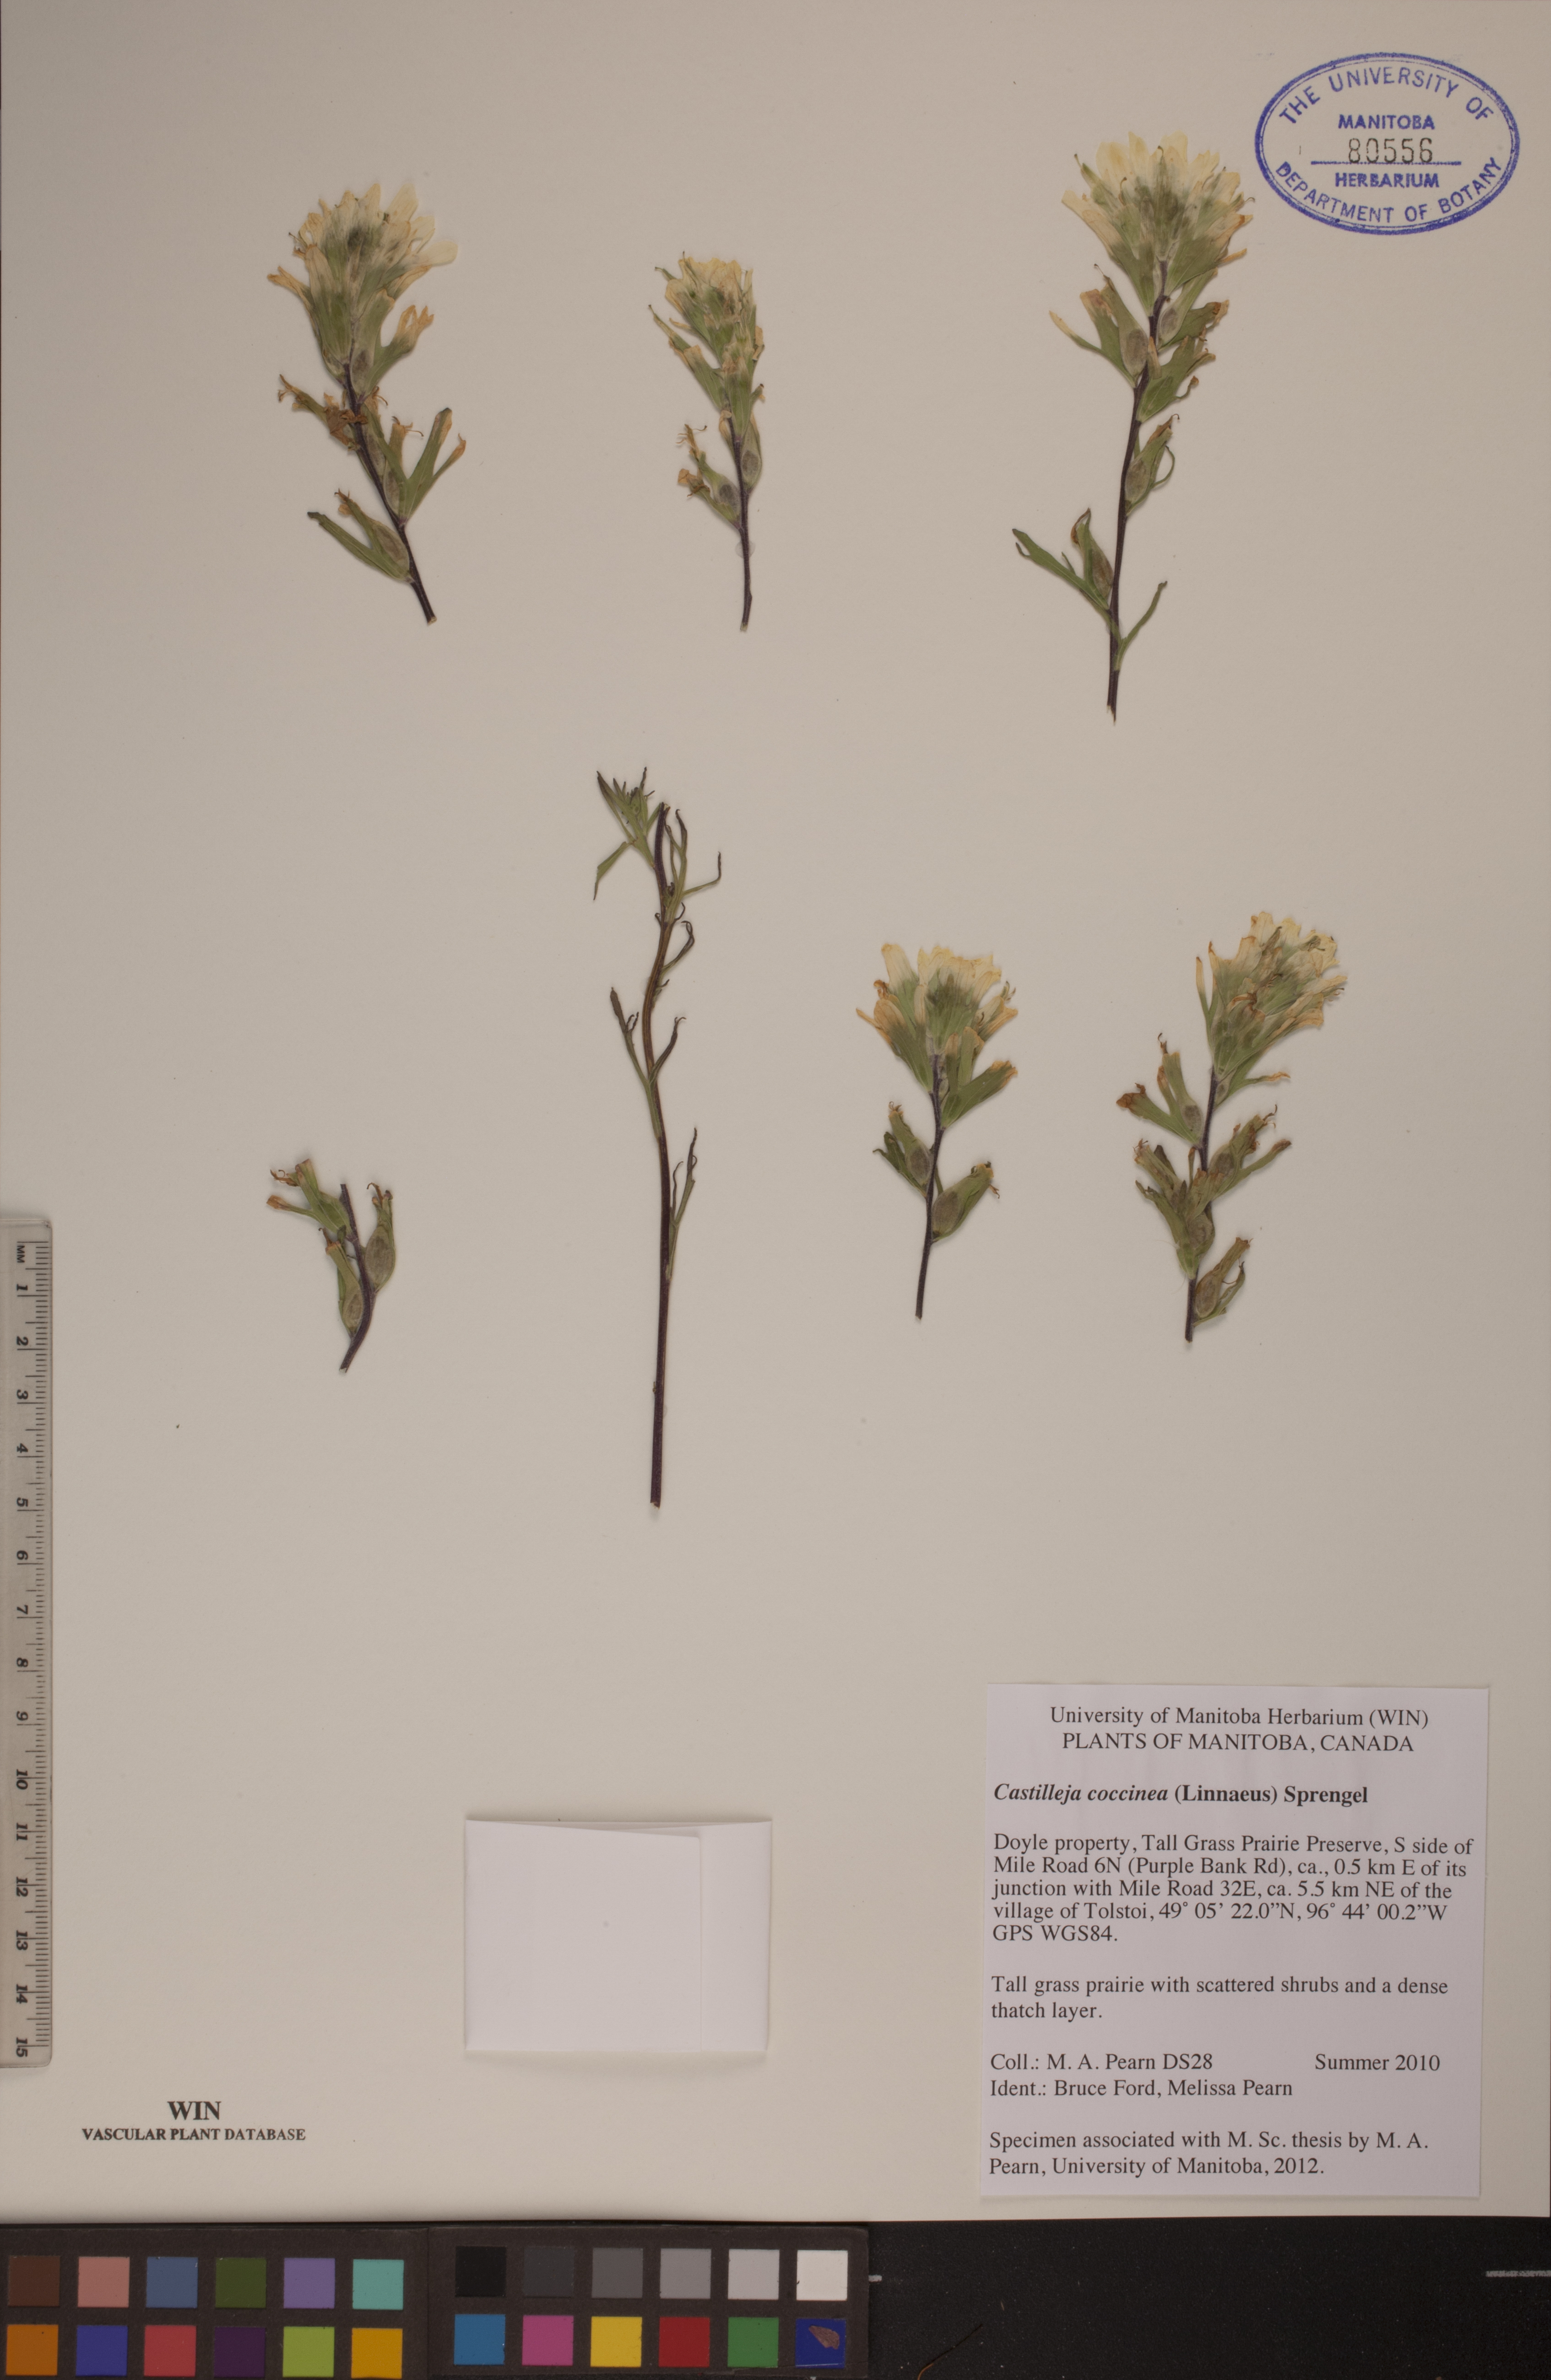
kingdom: Plantae
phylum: Tracheophyta
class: Magnoliopsida
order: Lamiales
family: Orobanchaceae
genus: Castilleja
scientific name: Castilleja coccinea
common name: Scarlet paintbrush
